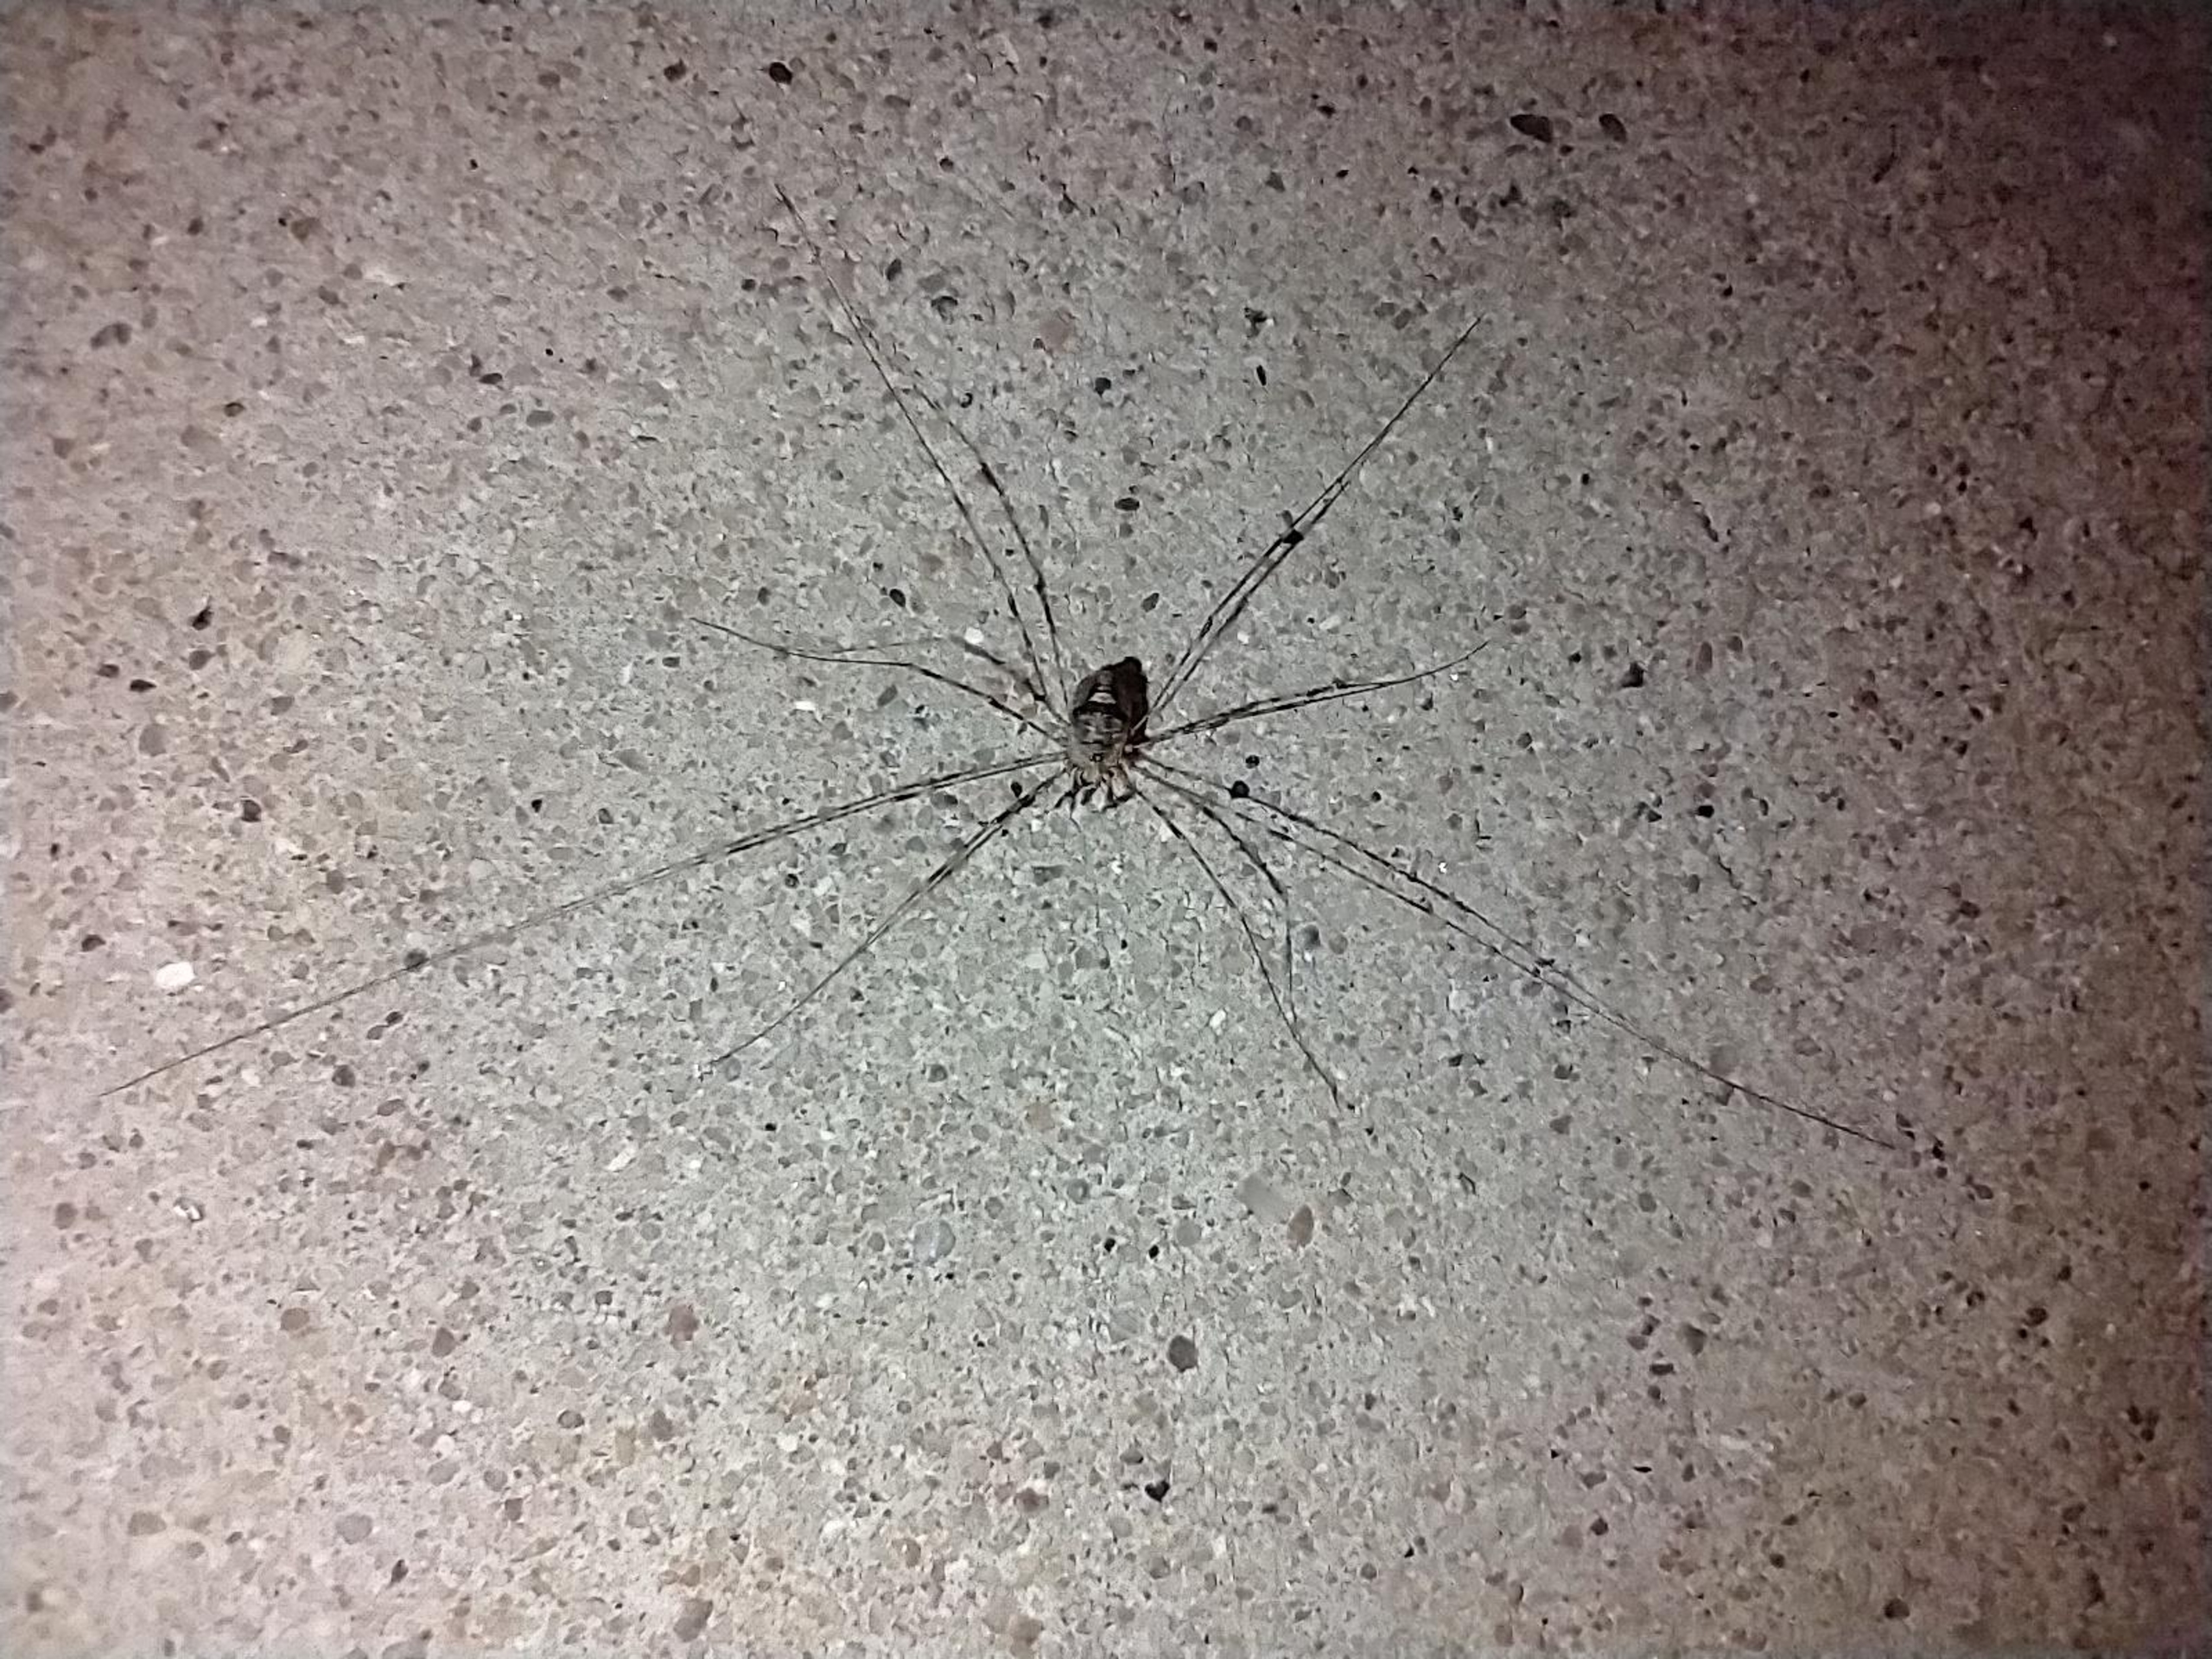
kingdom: Animalia
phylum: Arthropoda
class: Arachnida
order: Opiliones
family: Phalangiidae
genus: Dicranopalpus
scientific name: Dicranopalpus ramosus
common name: Gaffelmejer
